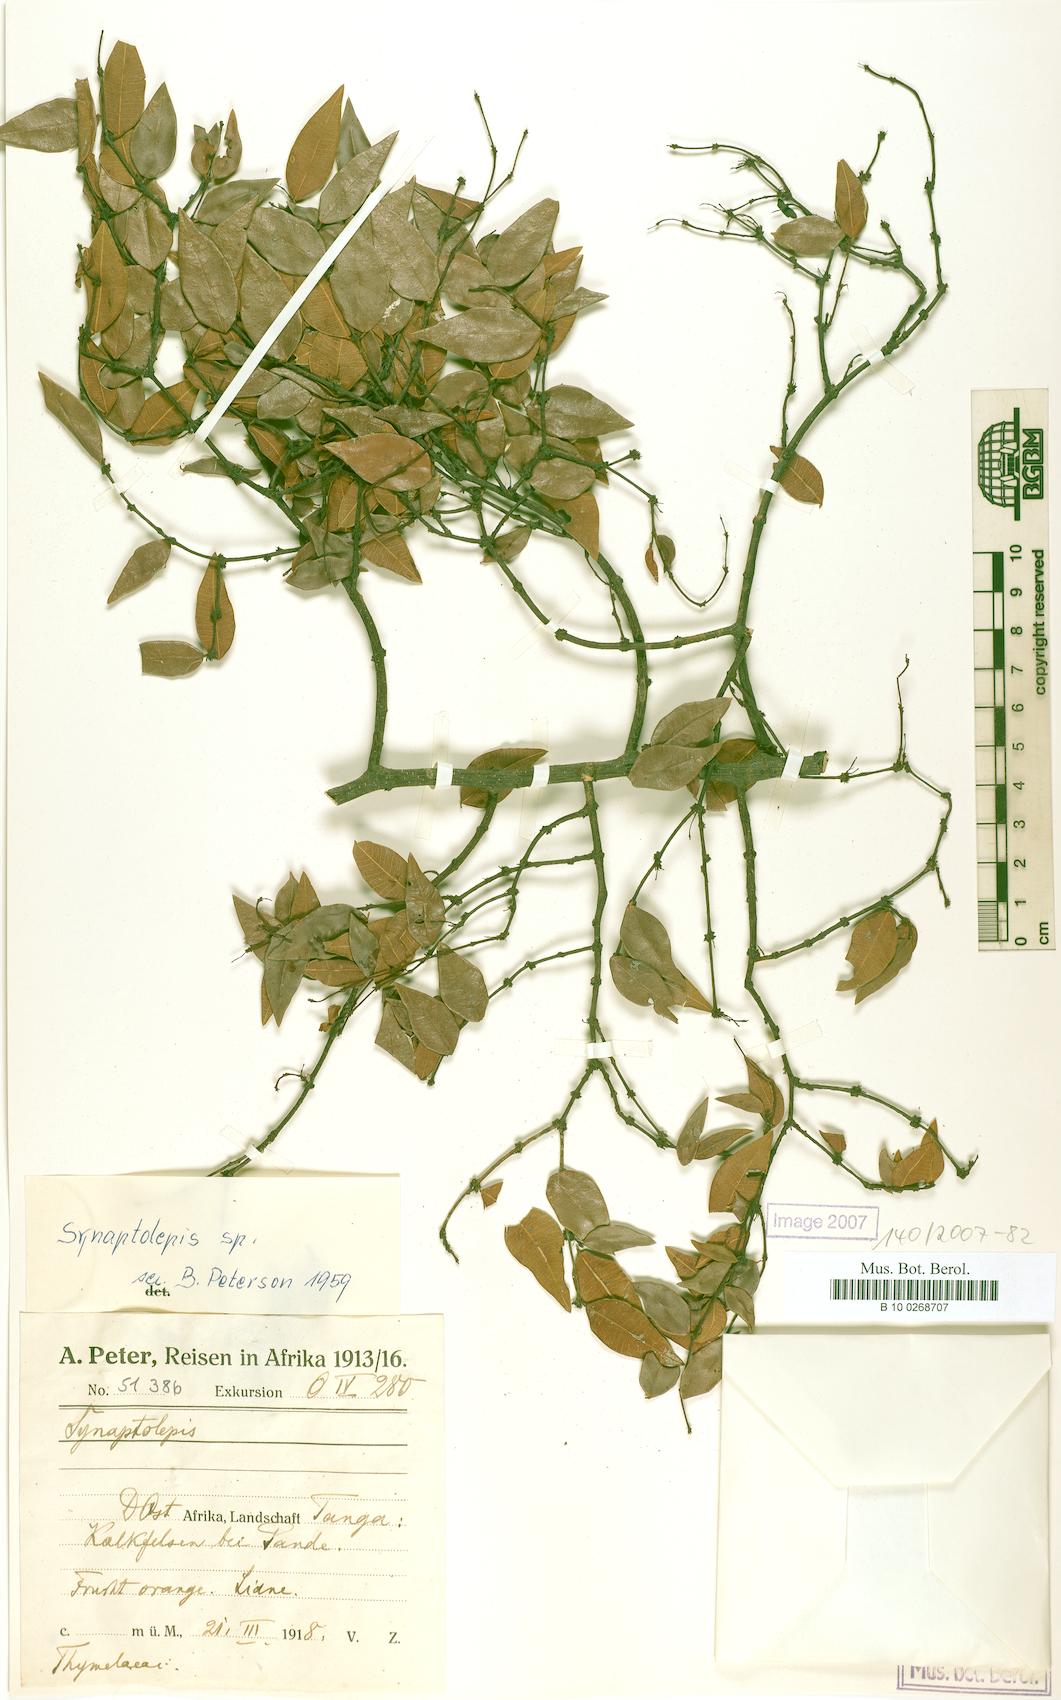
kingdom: Plantae
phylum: Tracheophyta
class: Magnoliopsida
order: Malvales
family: Thymelaeaceae
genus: Synaptolepis
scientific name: Synaptolepis
